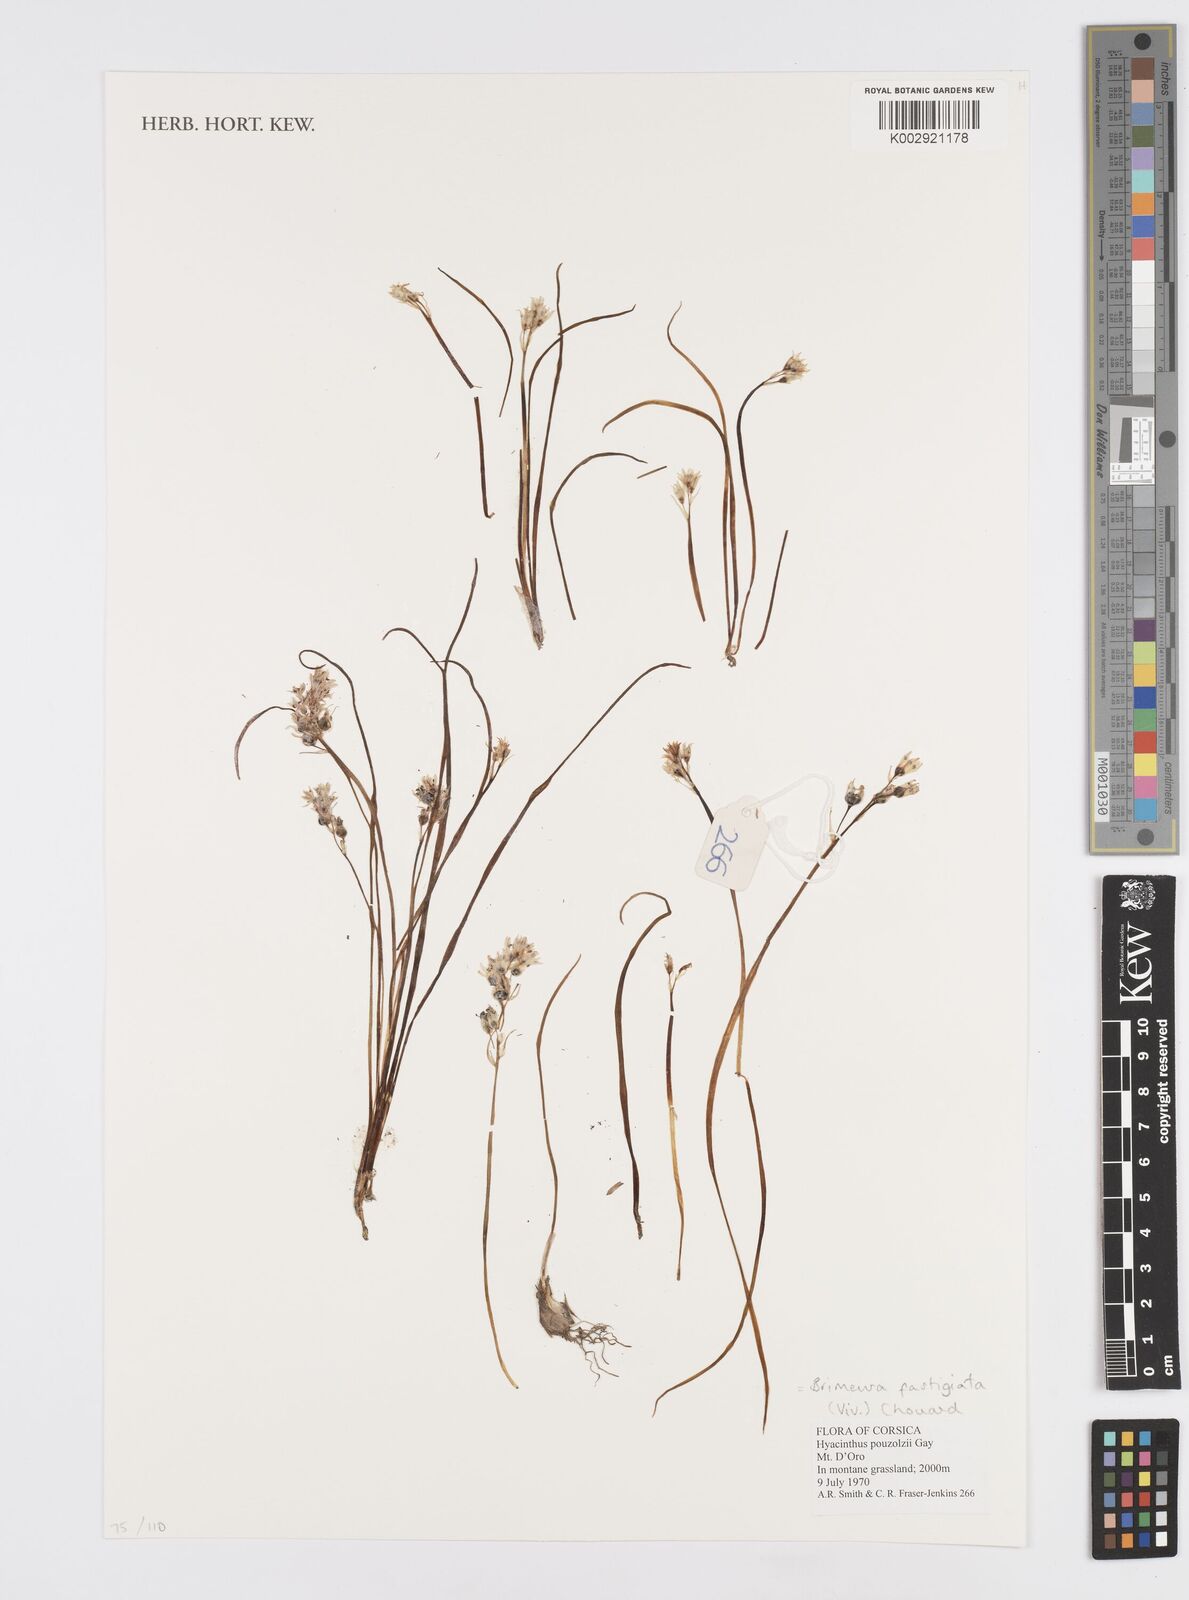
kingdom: Plantae
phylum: Tracheophyta
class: Liliopsida
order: Asparagales
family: Asparagaceae
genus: Brimeura
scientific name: Brimeura fastigiata
